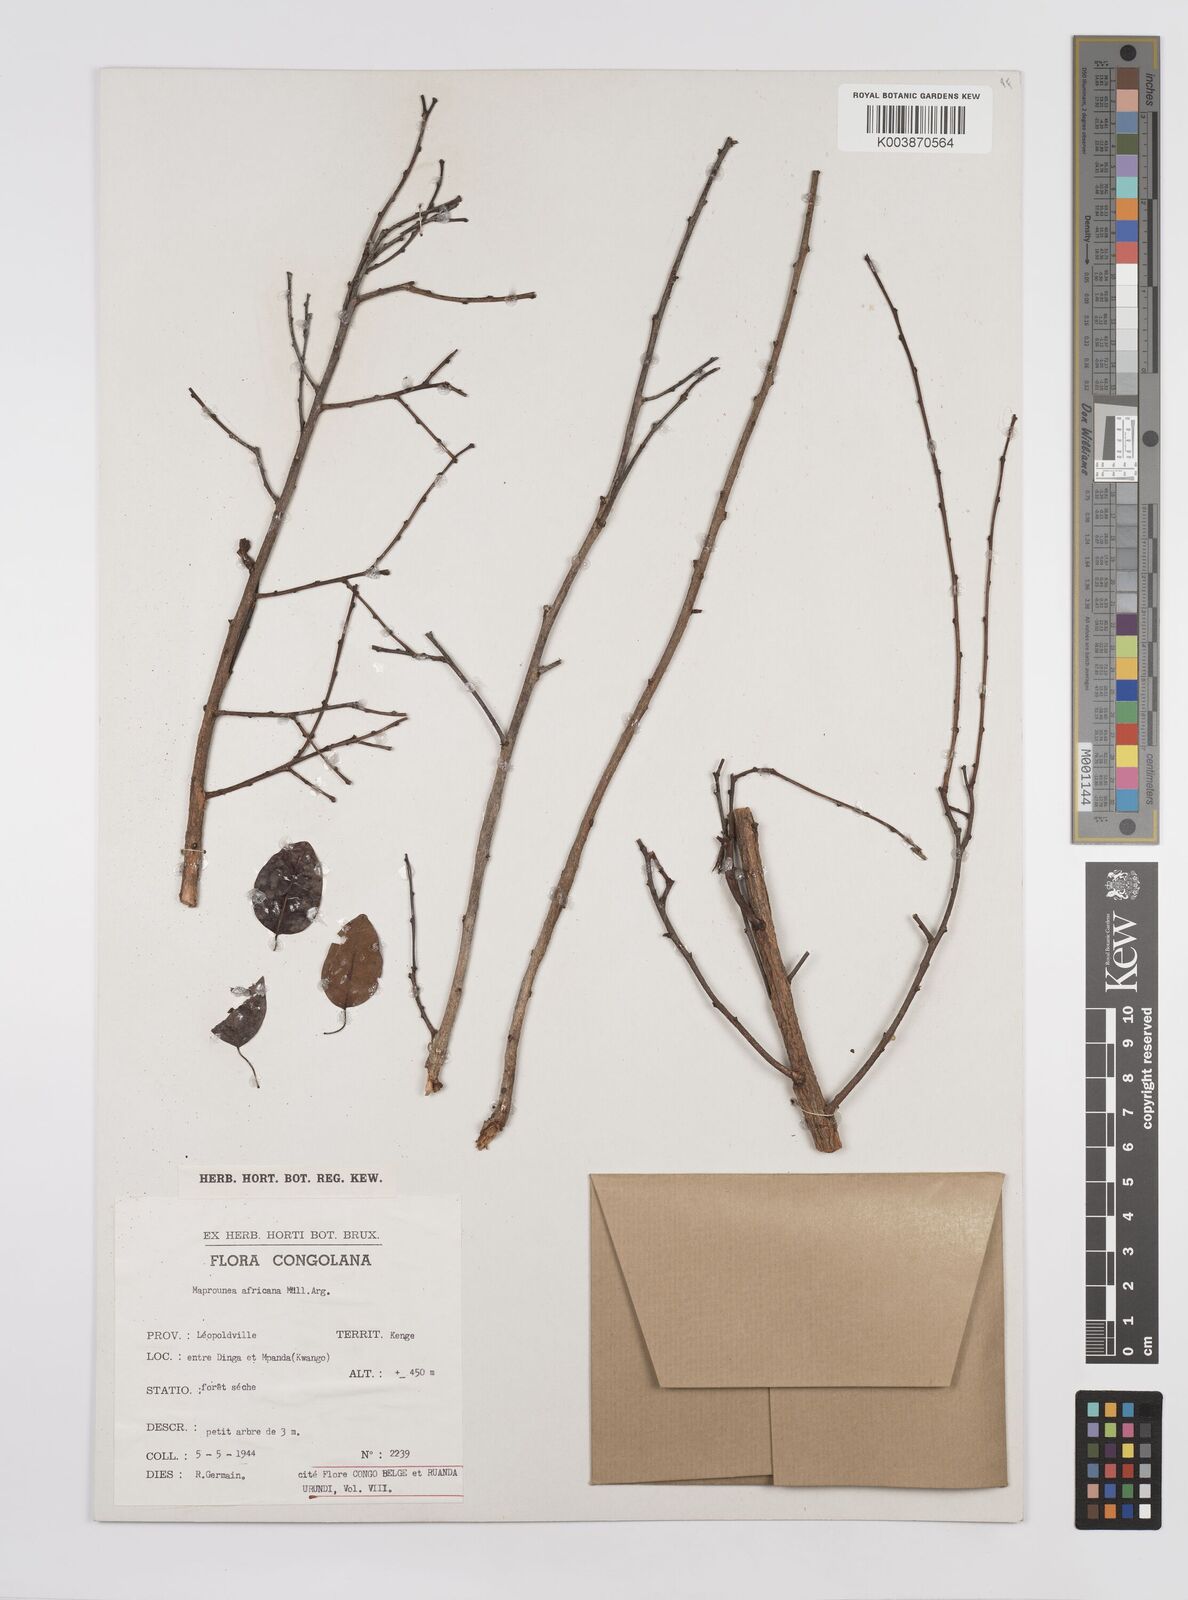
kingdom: Plantae
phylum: Tracheophyta
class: Magnoliopsida
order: Malpighiales
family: Euphorbiaceae
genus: Maprounea
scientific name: Maprounea africana
